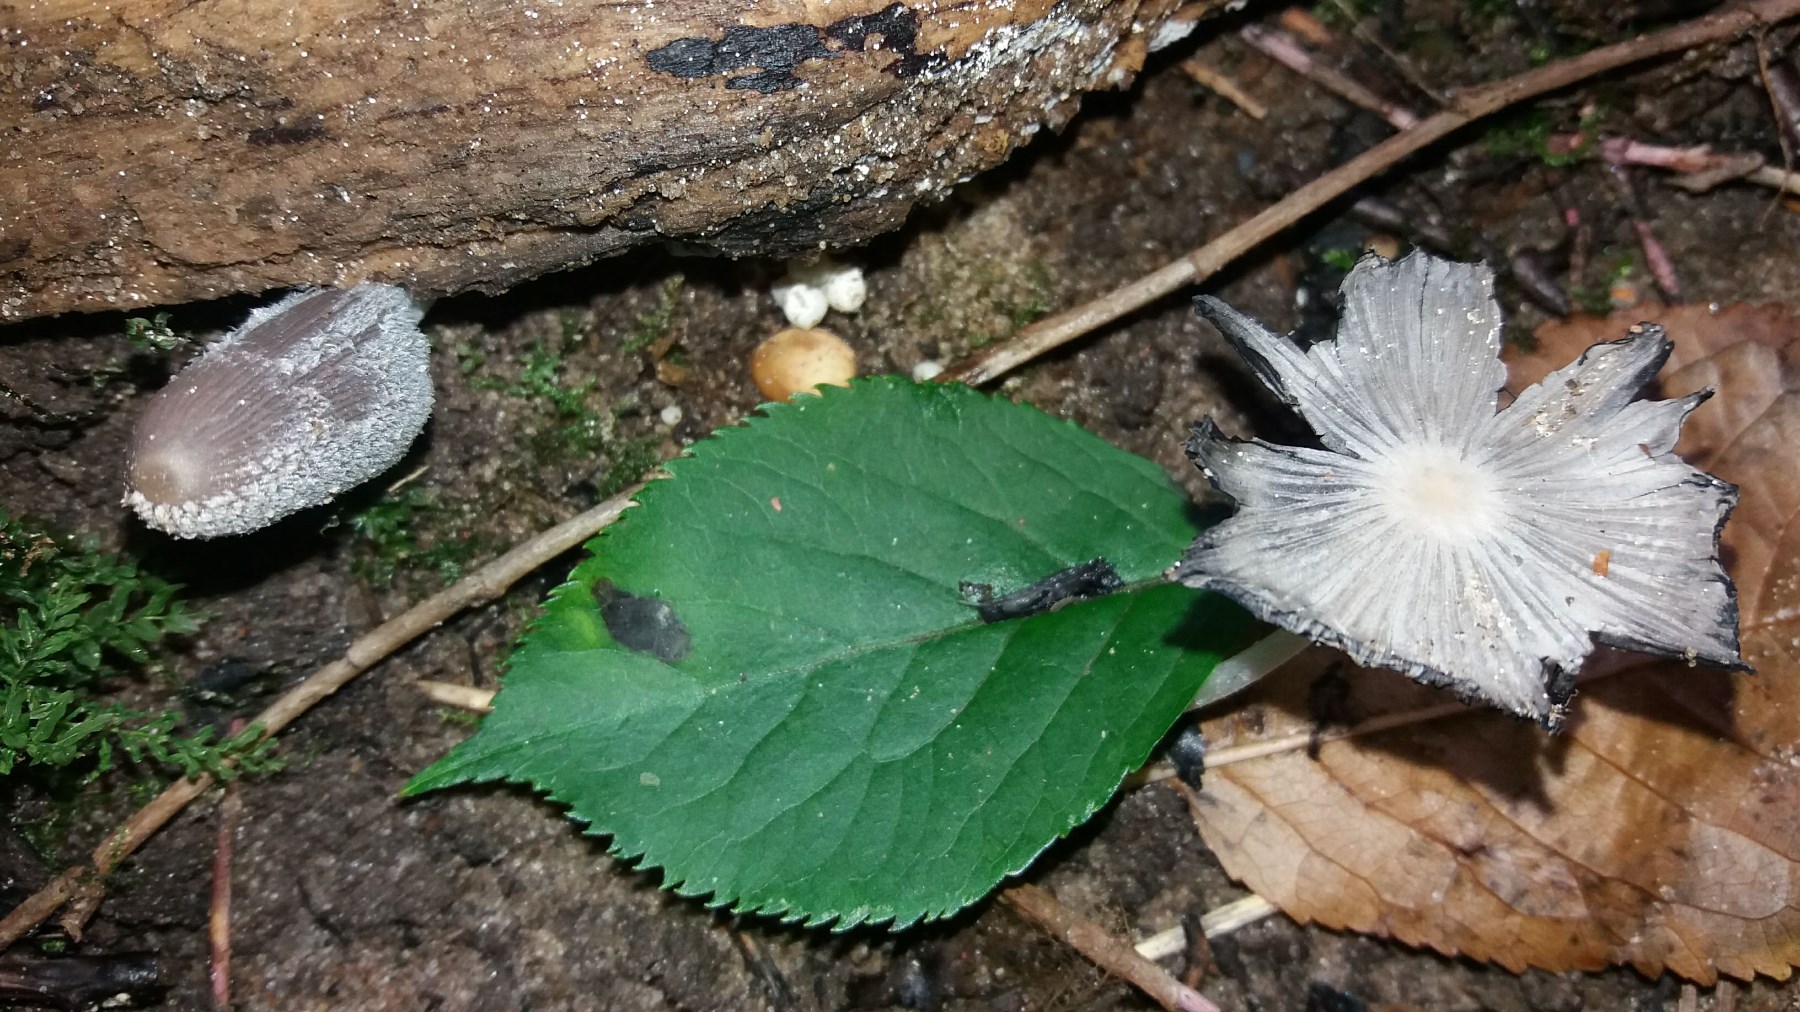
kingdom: Fungi
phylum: Basidiomycota
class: Agaricomycetes
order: Agaricales
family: Psathyrellaceae
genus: Coprinopsis
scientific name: Coprinopsis lagopus
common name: dunstokket blækhat
